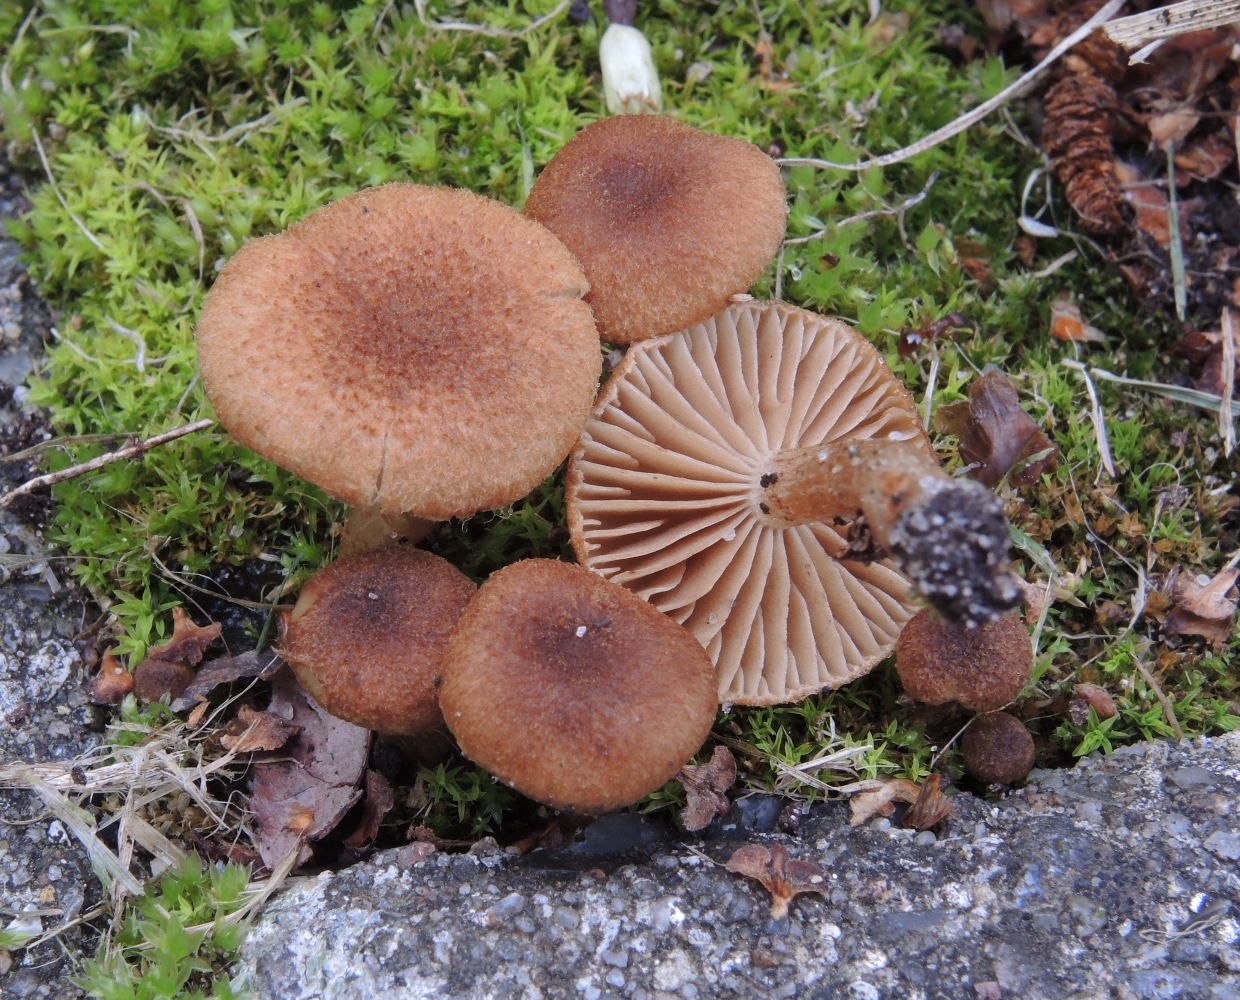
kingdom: Fungi
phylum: Basidiomycota
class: Agaricomycetes
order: Agaricales
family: Inocybaceae
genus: Inocybe
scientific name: Inocybe dulcamara
